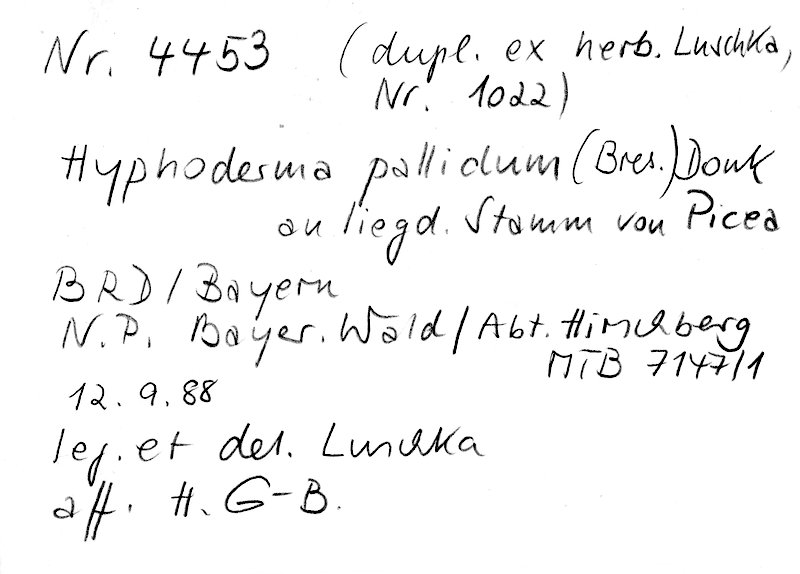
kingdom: Fungi
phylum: Basidiomycota
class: Agaricomycetes
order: Hymenochaetales
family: Rickenellaceae
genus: Peniophorella
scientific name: Peniophorella pallida
